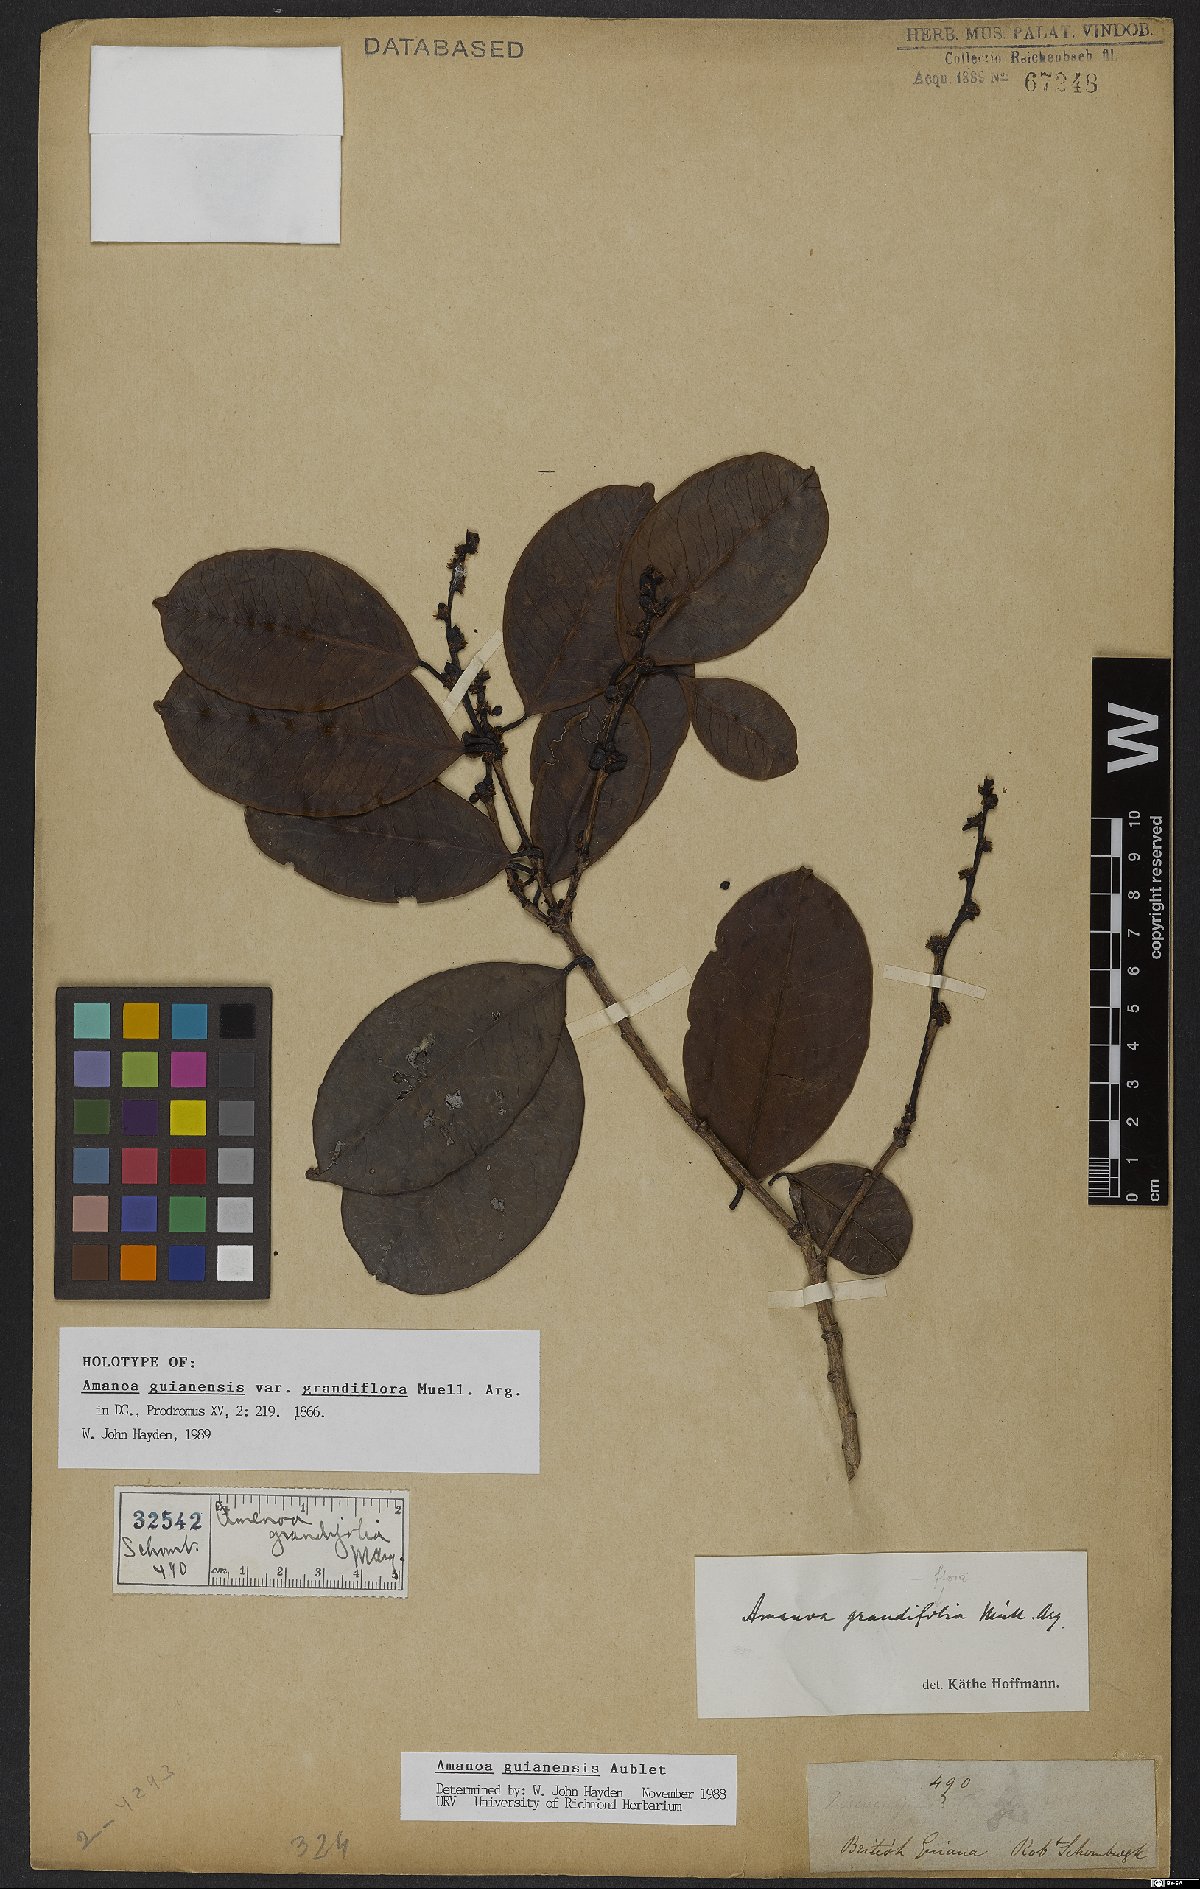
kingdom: Plantae
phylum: Tracheophyta
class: Magnoliopsida
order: Malpighiales
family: Phyllanthaceae
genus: Amanoa
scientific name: Amanoa guianensis
